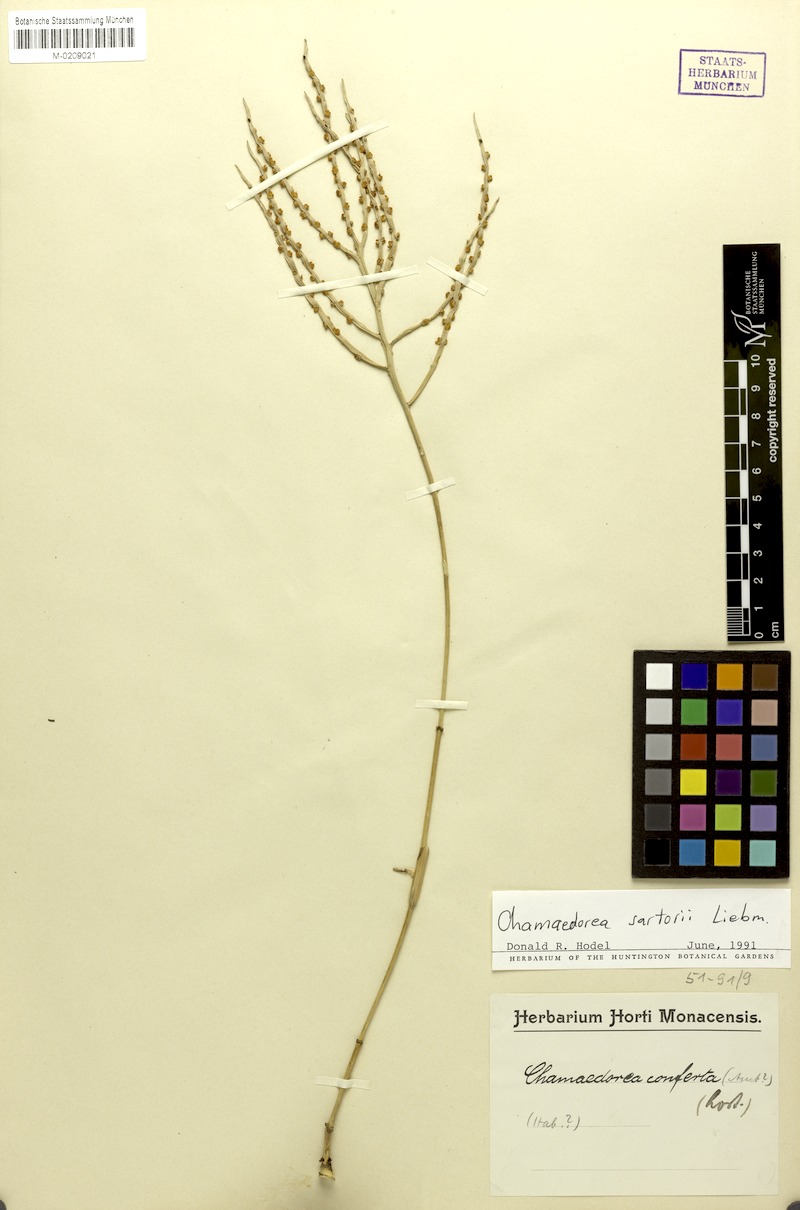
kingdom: Plantae
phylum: Tracheophyta
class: Liliopsida
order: Arecales
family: Arecaceae
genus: Chamaedorea
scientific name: Chamaedorea sartorii
